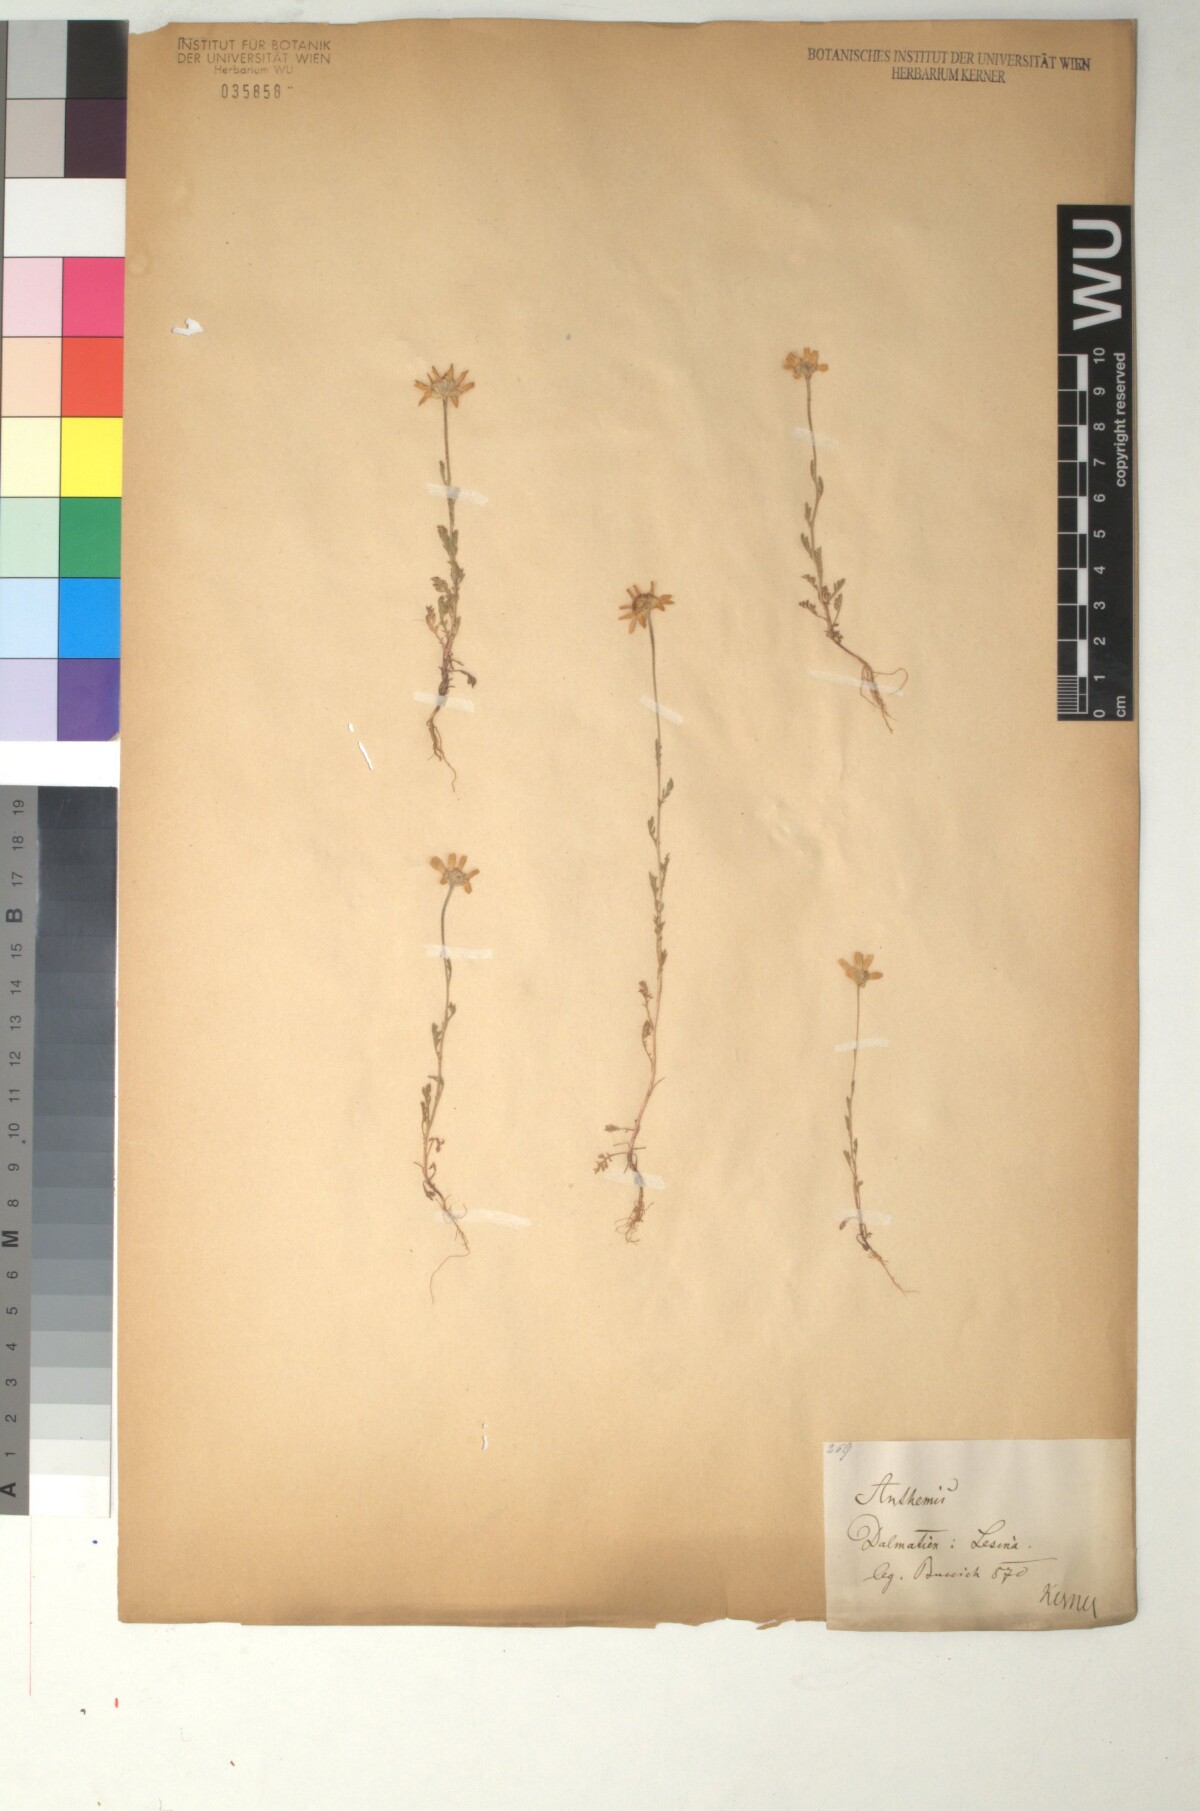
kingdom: Plantae
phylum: Tracheophyta
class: Magnoliopsida
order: Asterales
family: Asteraceae
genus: Anthemis
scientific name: Anthemis arvensis
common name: Corn chamomile
